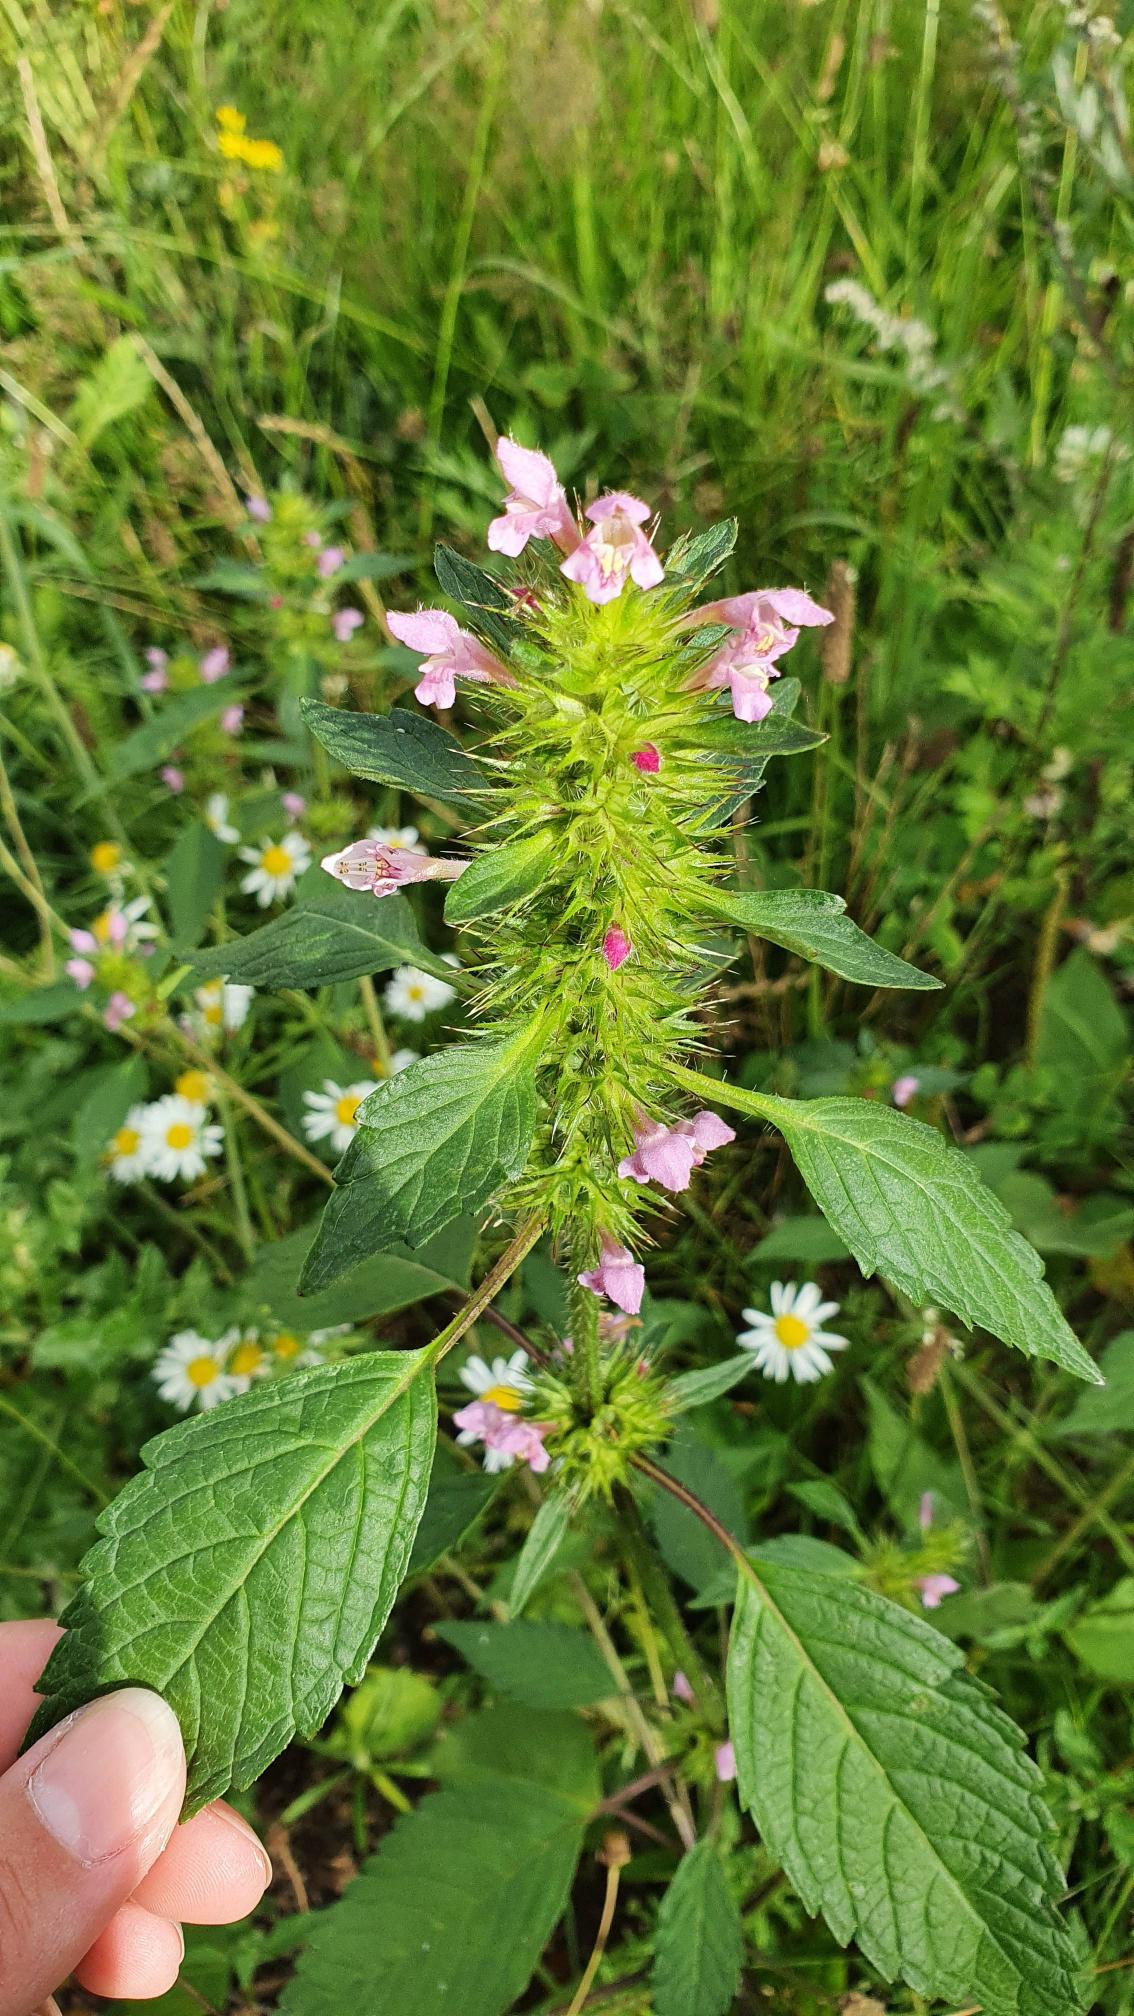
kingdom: Plantae
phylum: Tracheophyta
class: Magnoliopsida
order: Lamiales
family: Lamiaceae
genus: Galeopsis
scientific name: Galeopsis tetrahit
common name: Almindelig hanekro
